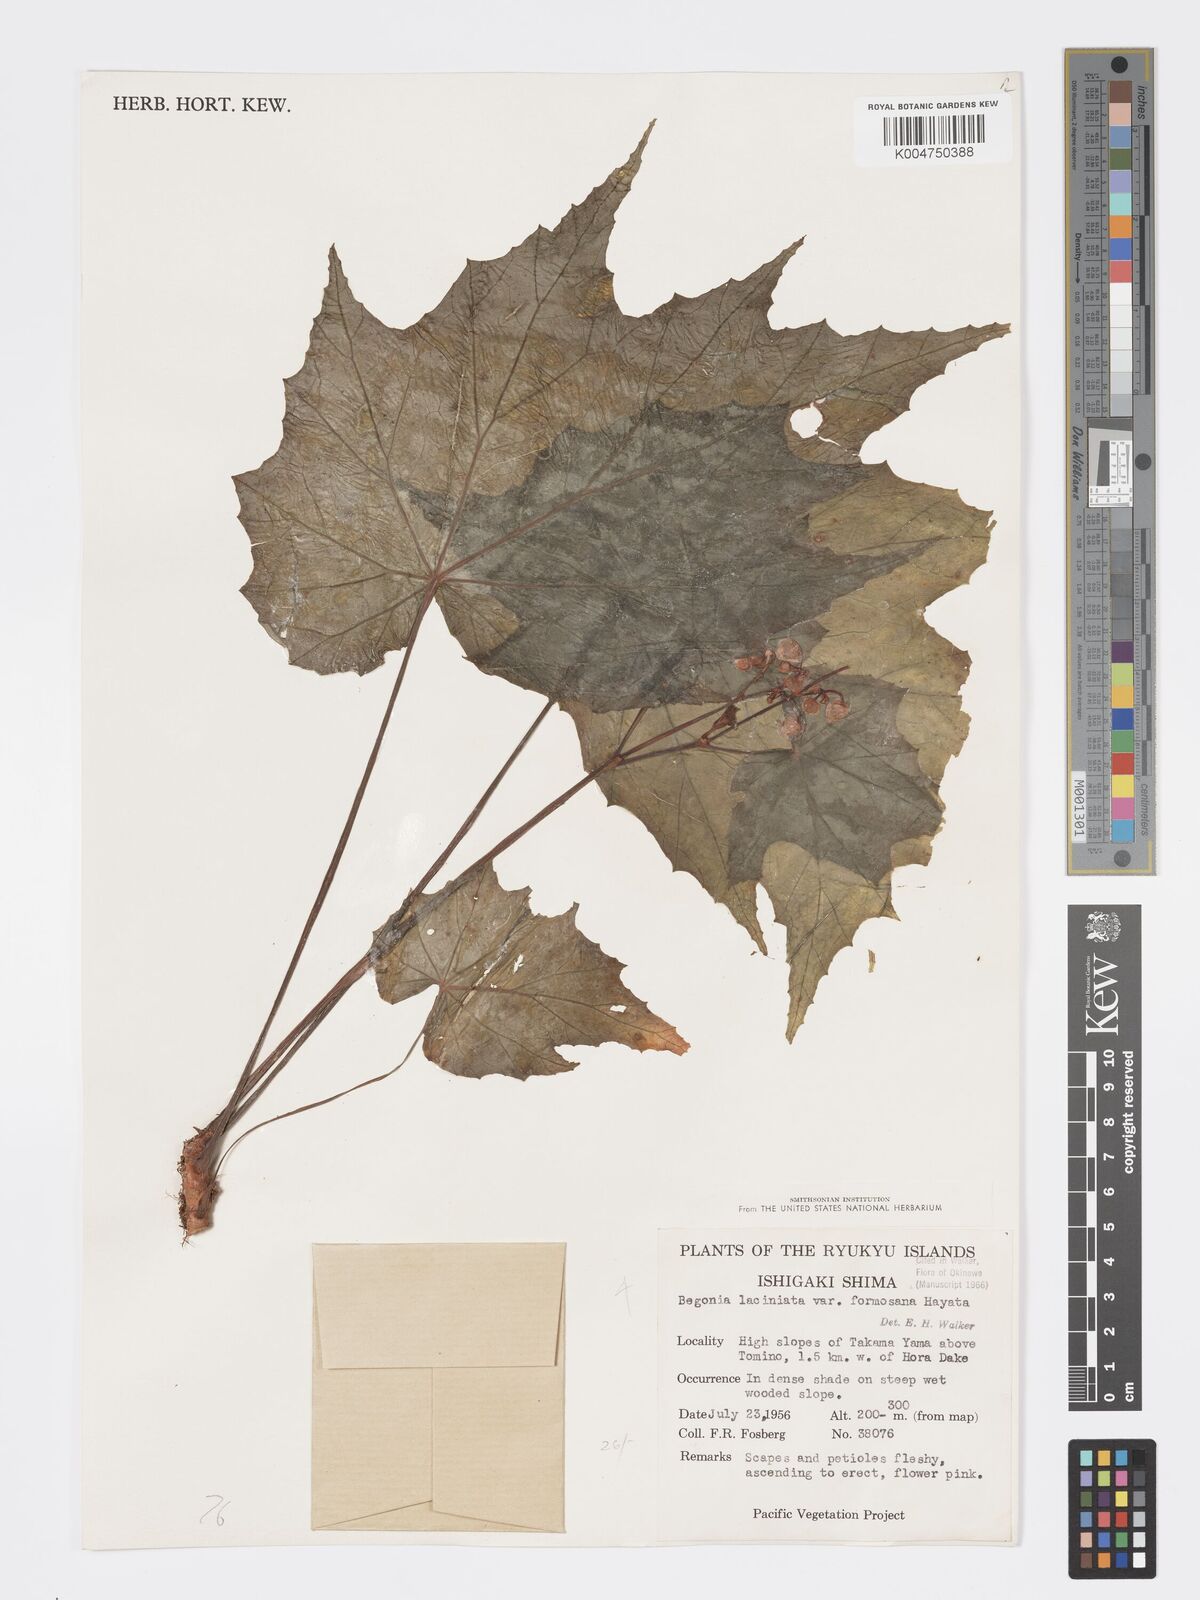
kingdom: Plantae
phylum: Tracheophyta
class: Magnoliopsida
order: Cucurbitales
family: Begoniaceae
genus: Begonia
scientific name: Begonia formosana
